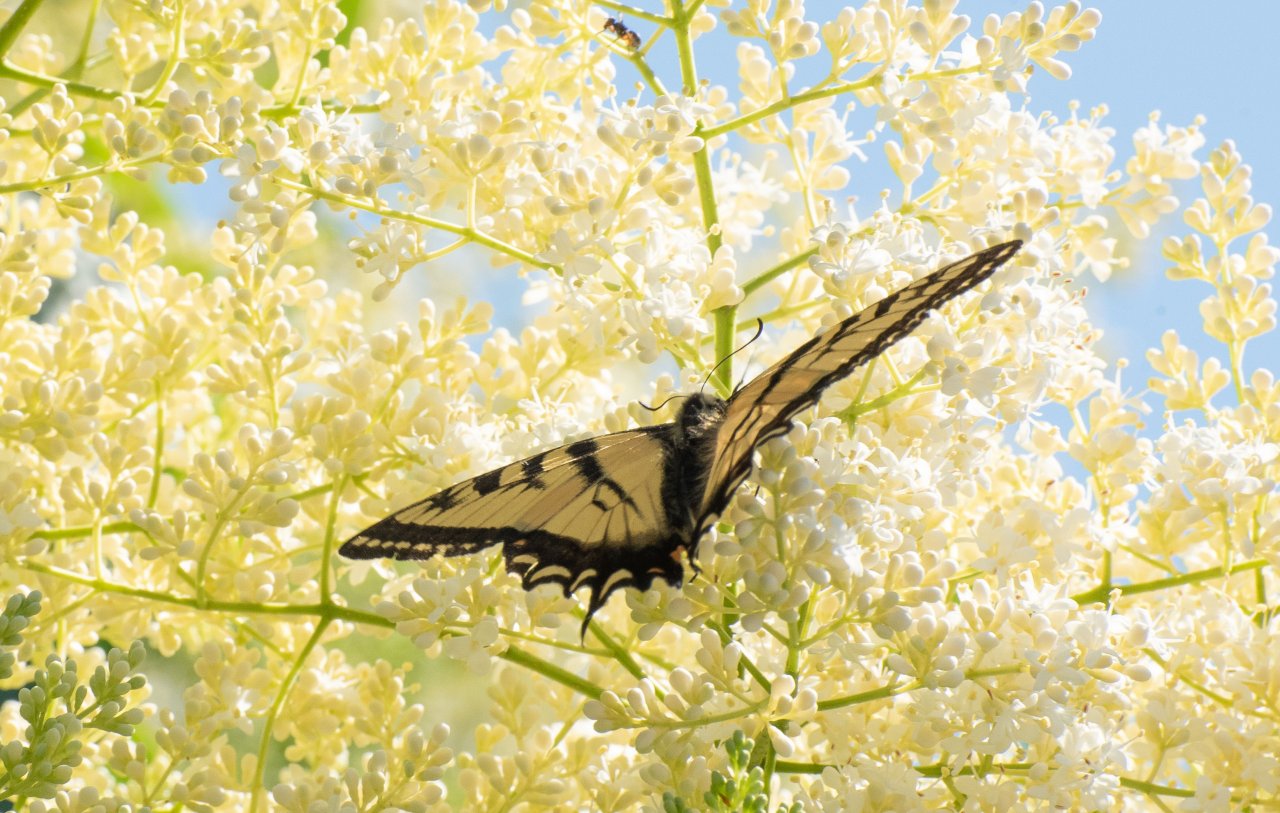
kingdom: Animalia
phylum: Arthropoda
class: Insecta
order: Lepidoptera
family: Papilionidae
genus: Pterourus
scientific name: Pterourus canadensis
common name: Canadian Tiger Swallowtail
